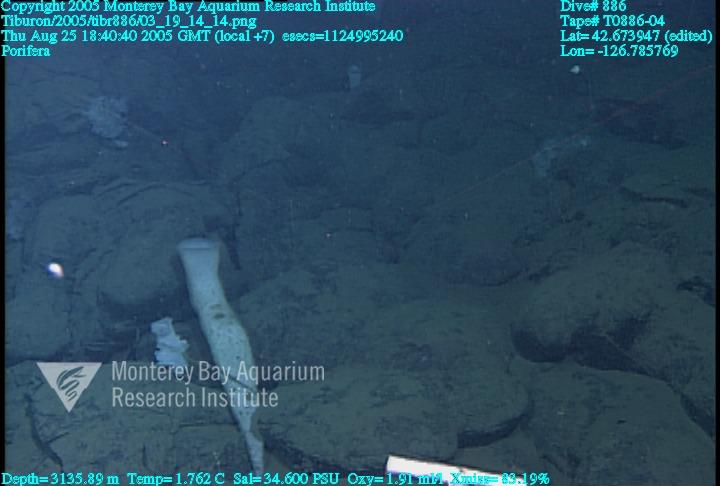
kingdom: Animalia
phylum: Porifera
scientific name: Porifera
